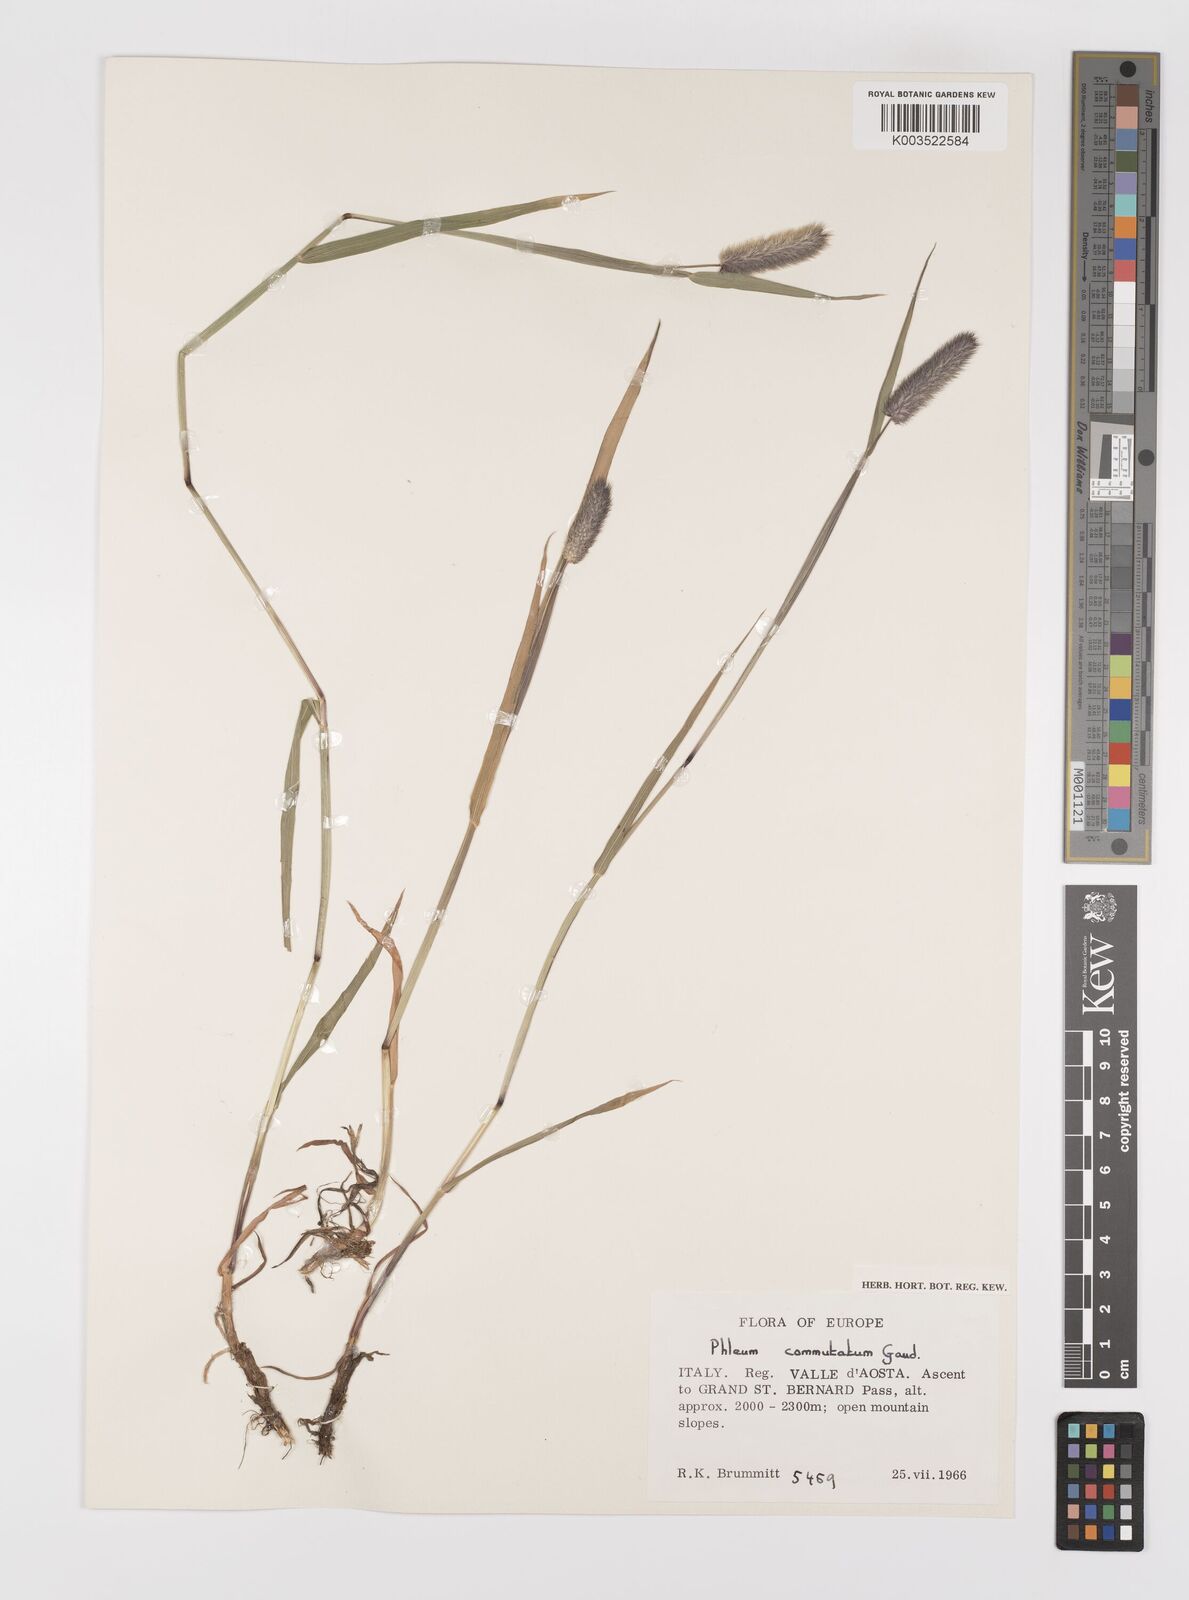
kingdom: Plantae
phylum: Tracheophyta
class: Liliopsida
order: Poales
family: Poaceae
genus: Phleum
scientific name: Phleum alpinum
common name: Alpine cat's-tail
